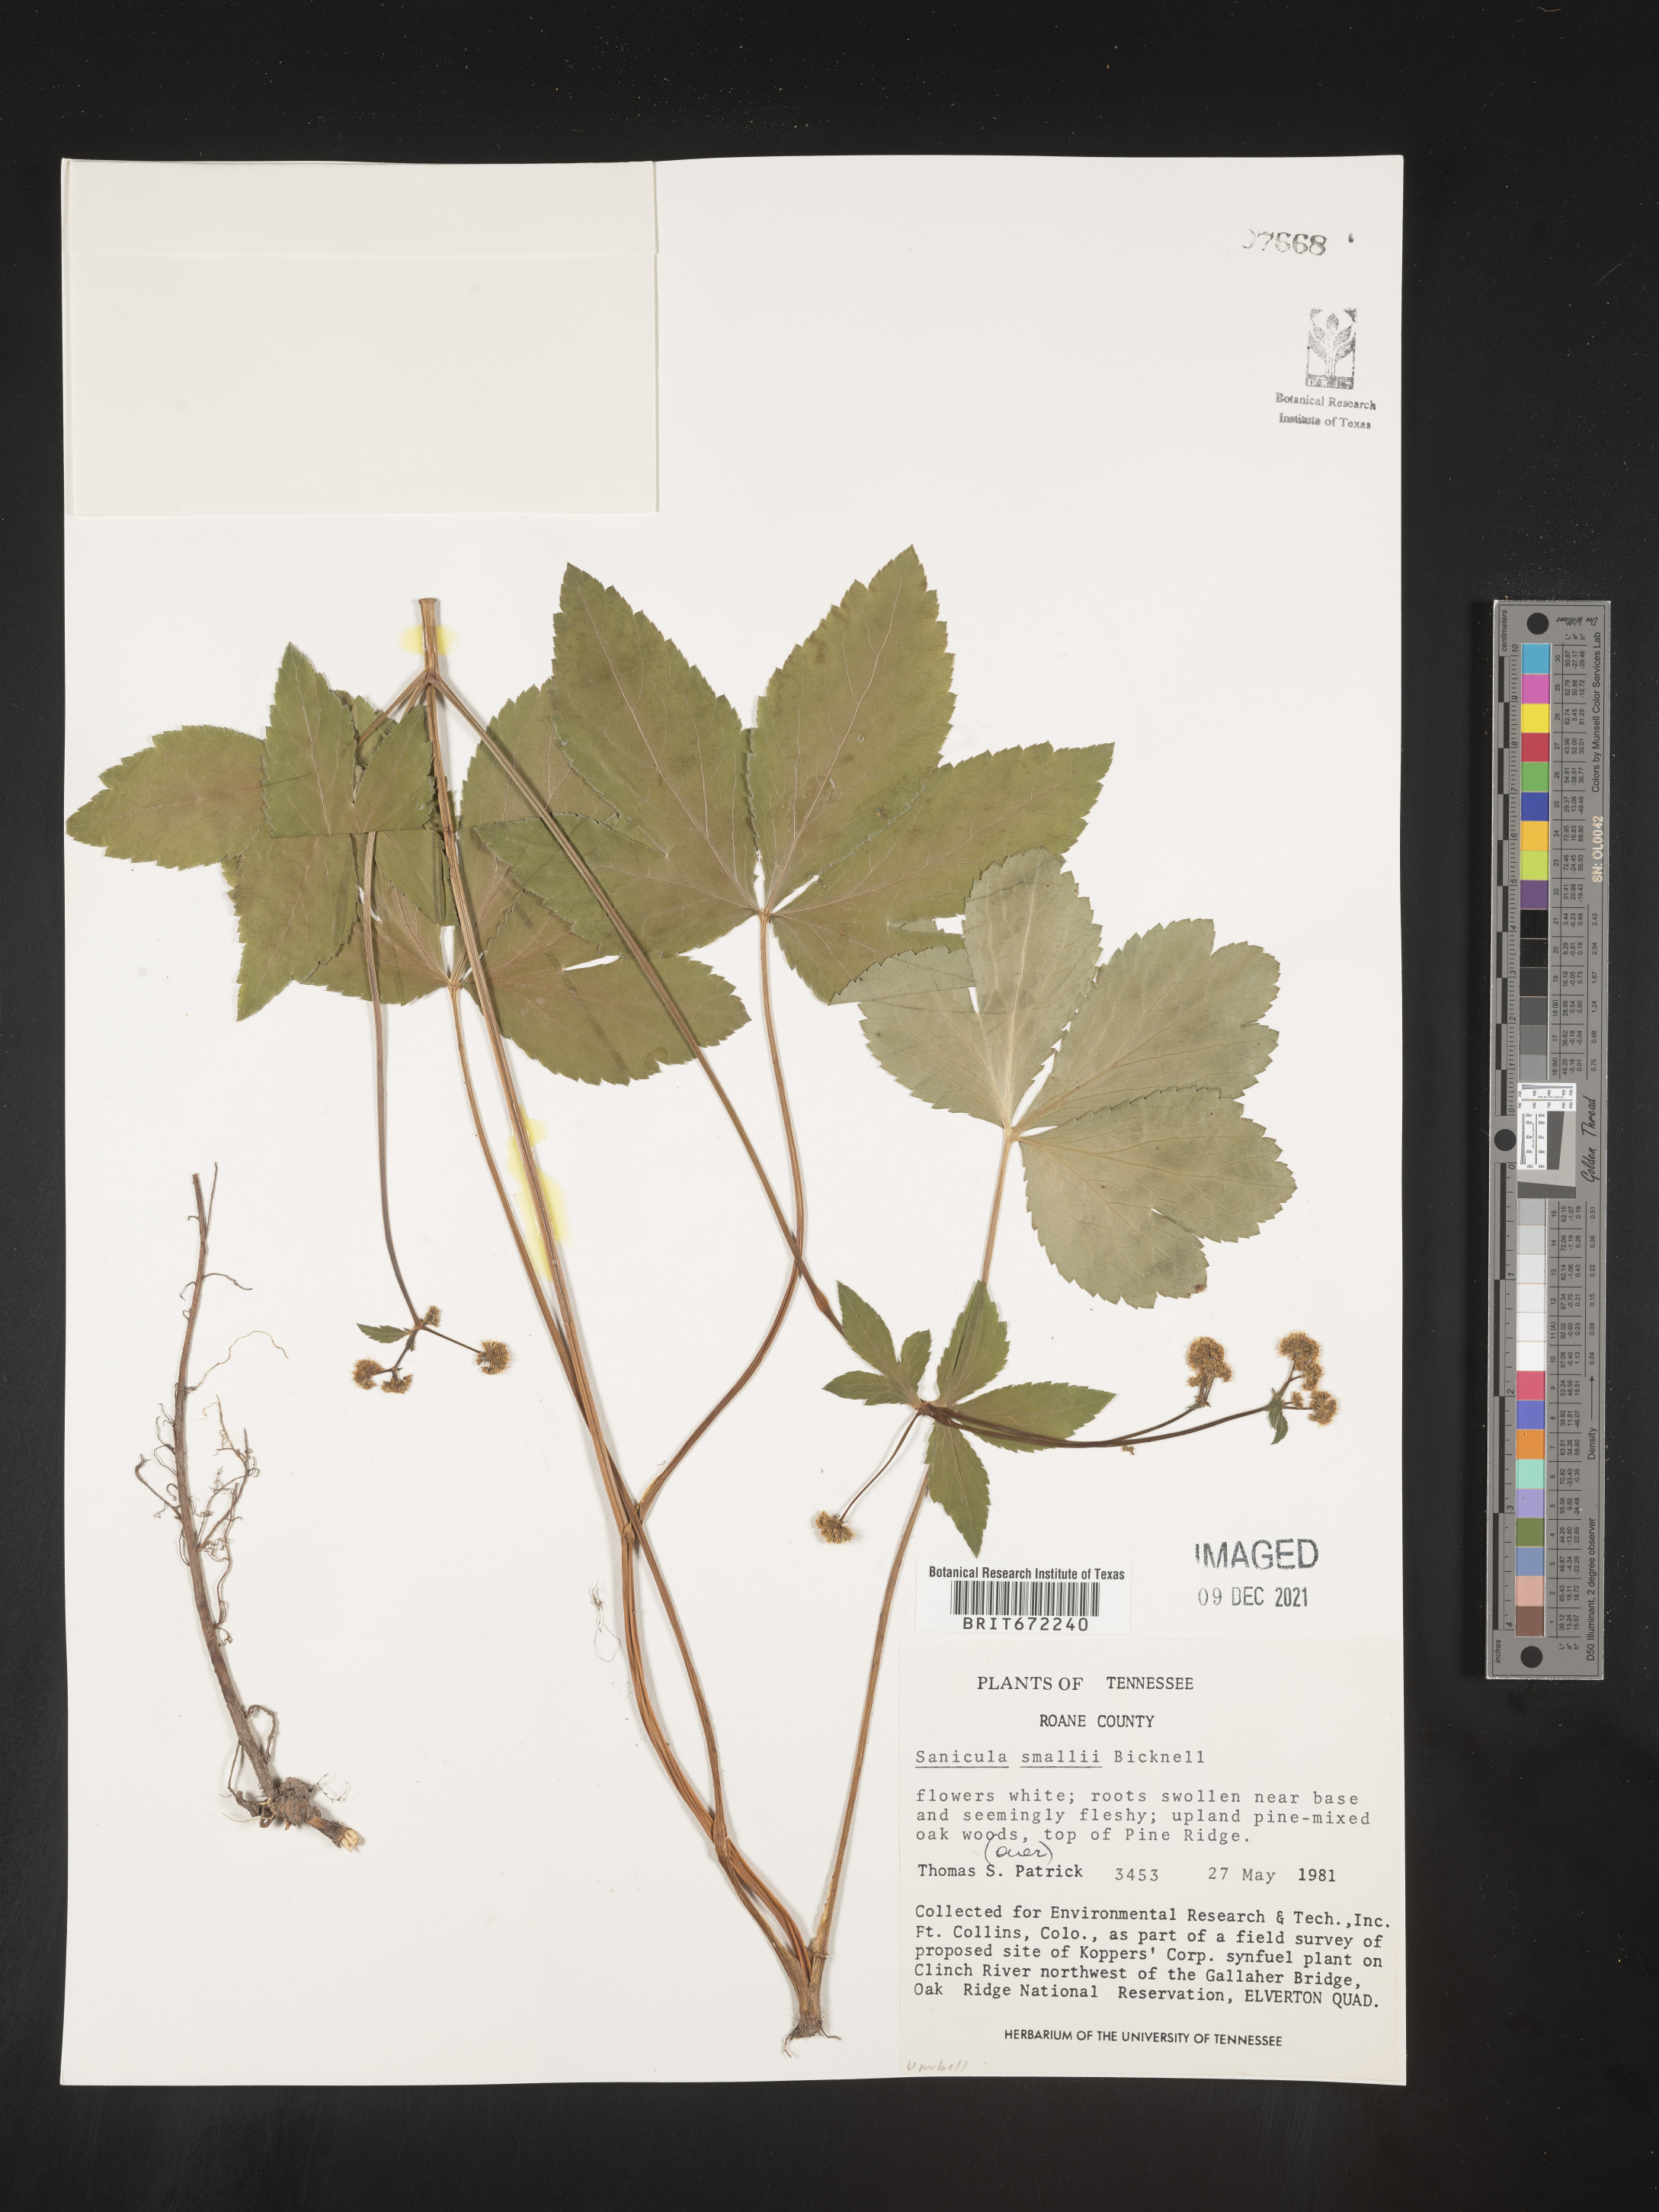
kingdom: Plantae
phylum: Tracheophyta
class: Magnoliopsida
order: Apiales
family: Apiaceae
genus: Sanicula
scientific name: Sanicula
